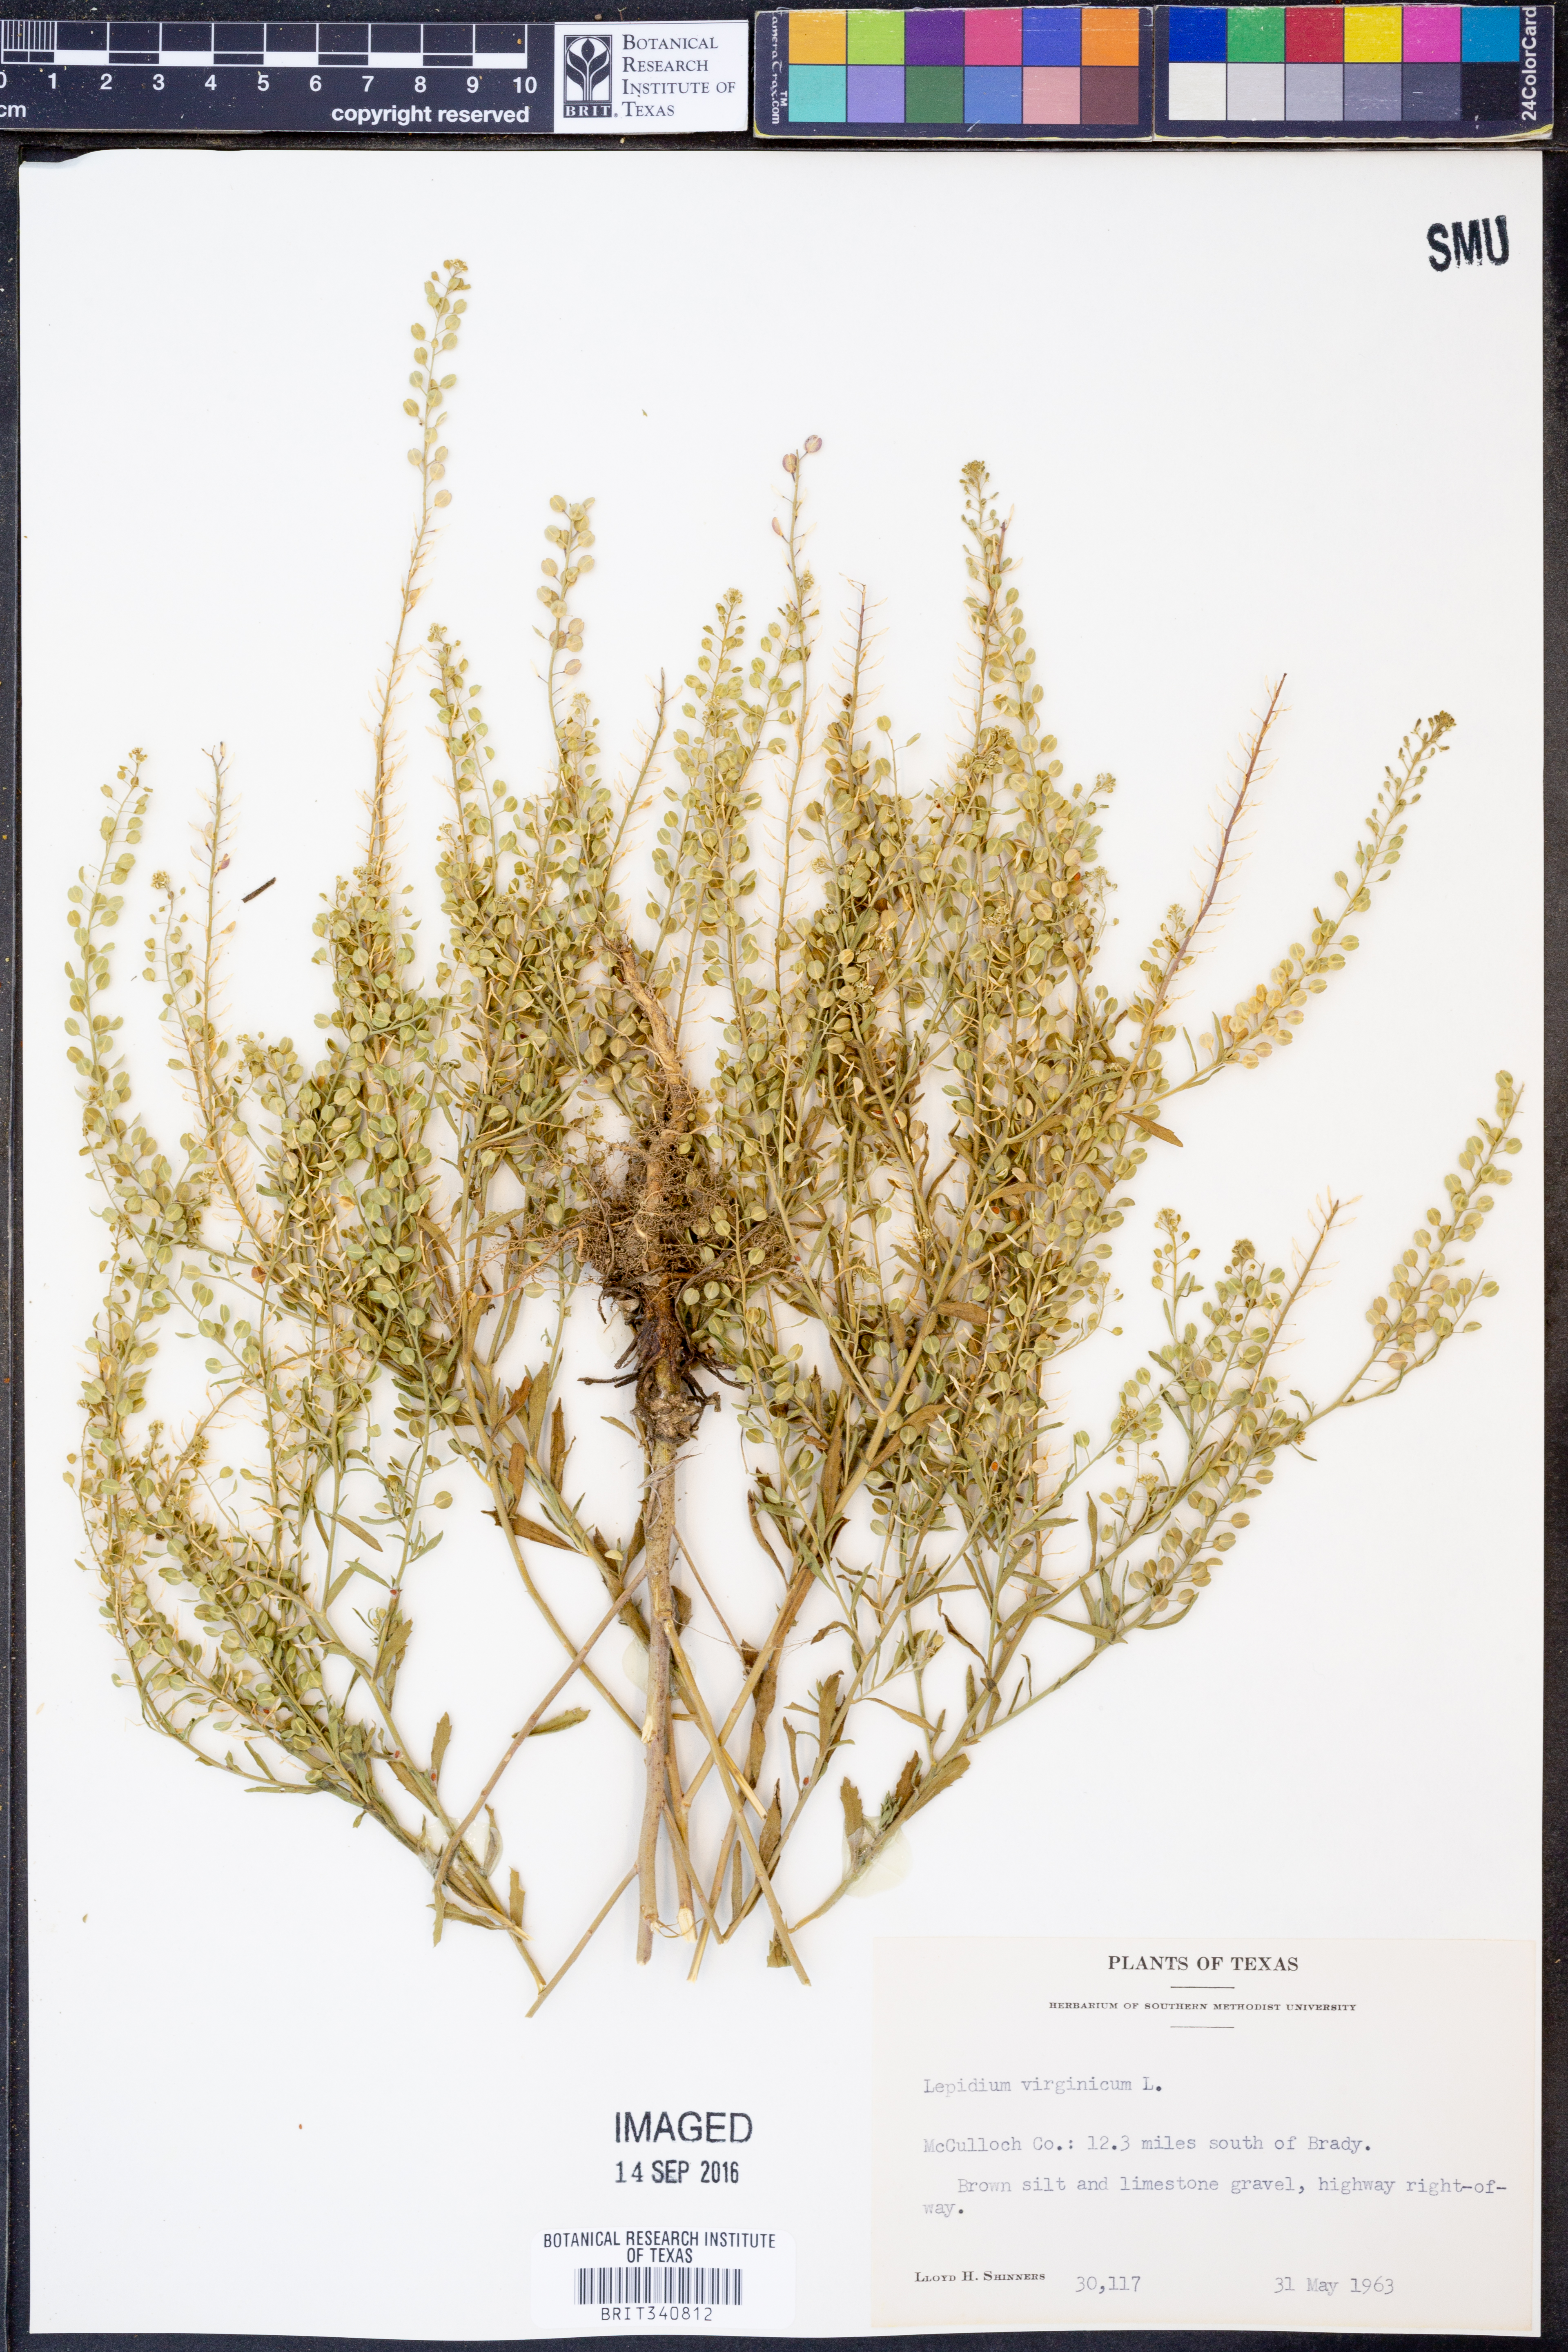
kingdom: Plantae
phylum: Tracheophyta
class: Magnoliopsida
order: Brassicales
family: Brassicaceae
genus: Lepidium
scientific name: Lepidium virginicum
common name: Least pepperwort
